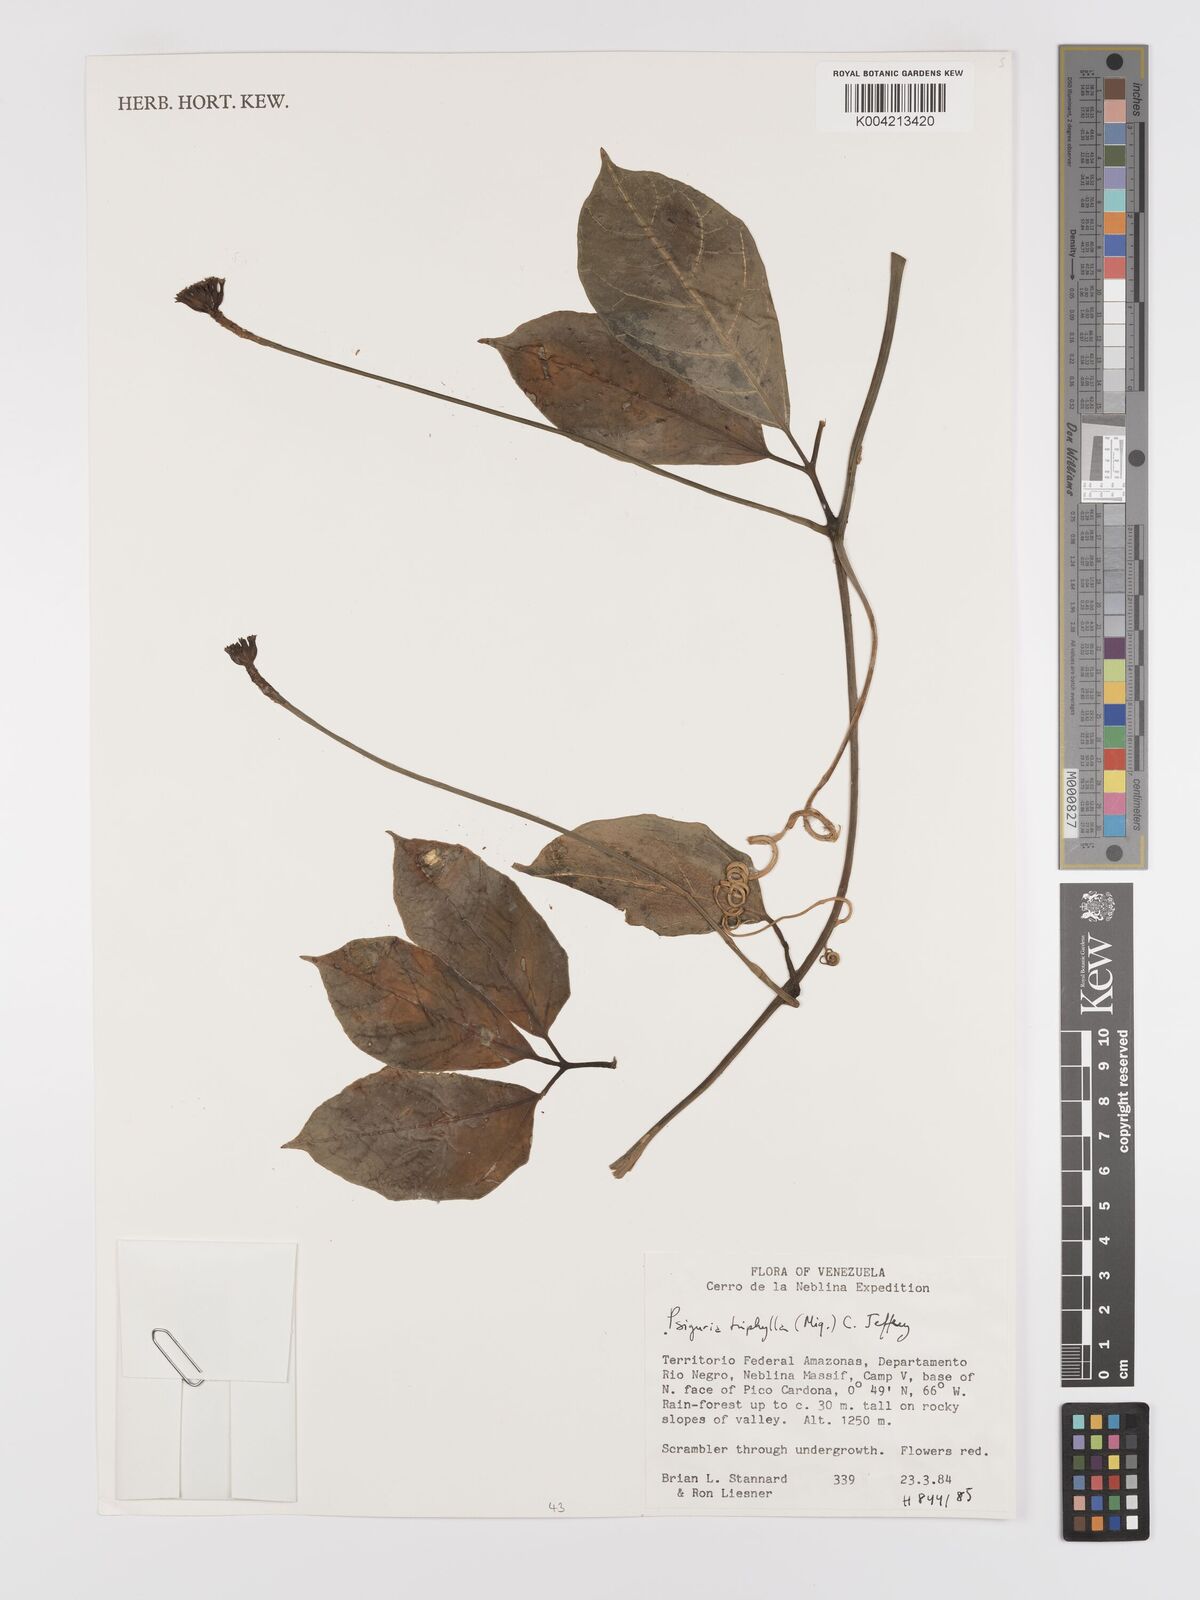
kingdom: Plantae
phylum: Tracheophyta
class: Magnoliopsida
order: Cucurbitales
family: Cucurbitaceae
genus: Psiguria
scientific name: Psiguria triphylla
